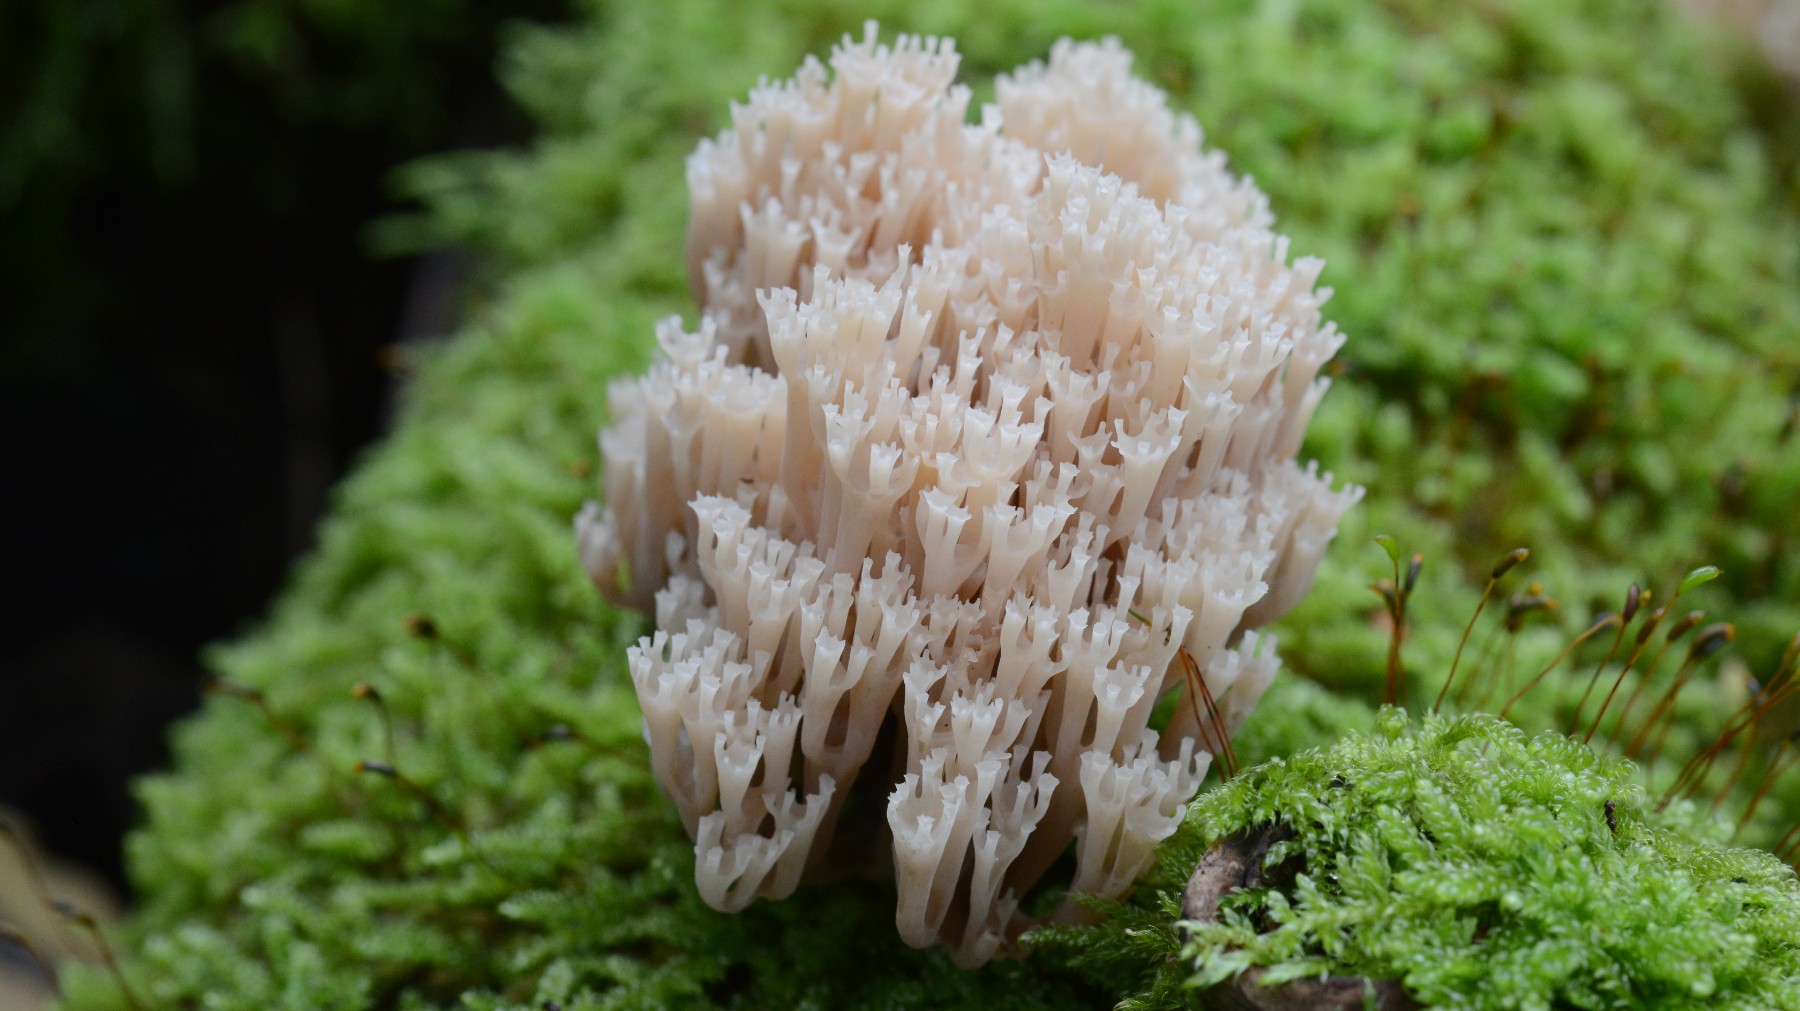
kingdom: Fungi
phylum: Basidiomycota
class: Agaricomycetes
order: Russulales
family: Auriscalpiaceae
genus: Artomyces
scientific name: Artomyces pyxidatus
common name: kandelabersvamp
